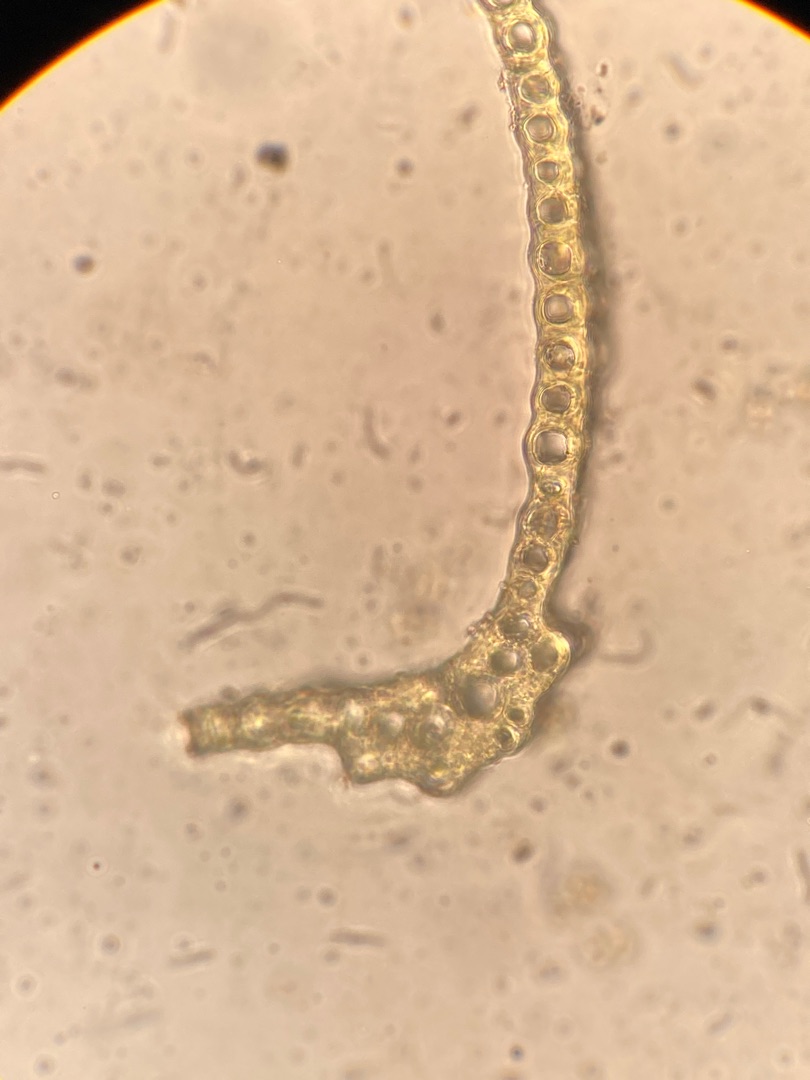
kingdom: Plantae
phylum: Bryophyta
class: Bryopsida
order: Dicranales
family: Dicranaceae
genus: Dicranum
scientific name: Dicranum scoparium
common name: Almindelig kløvtand
